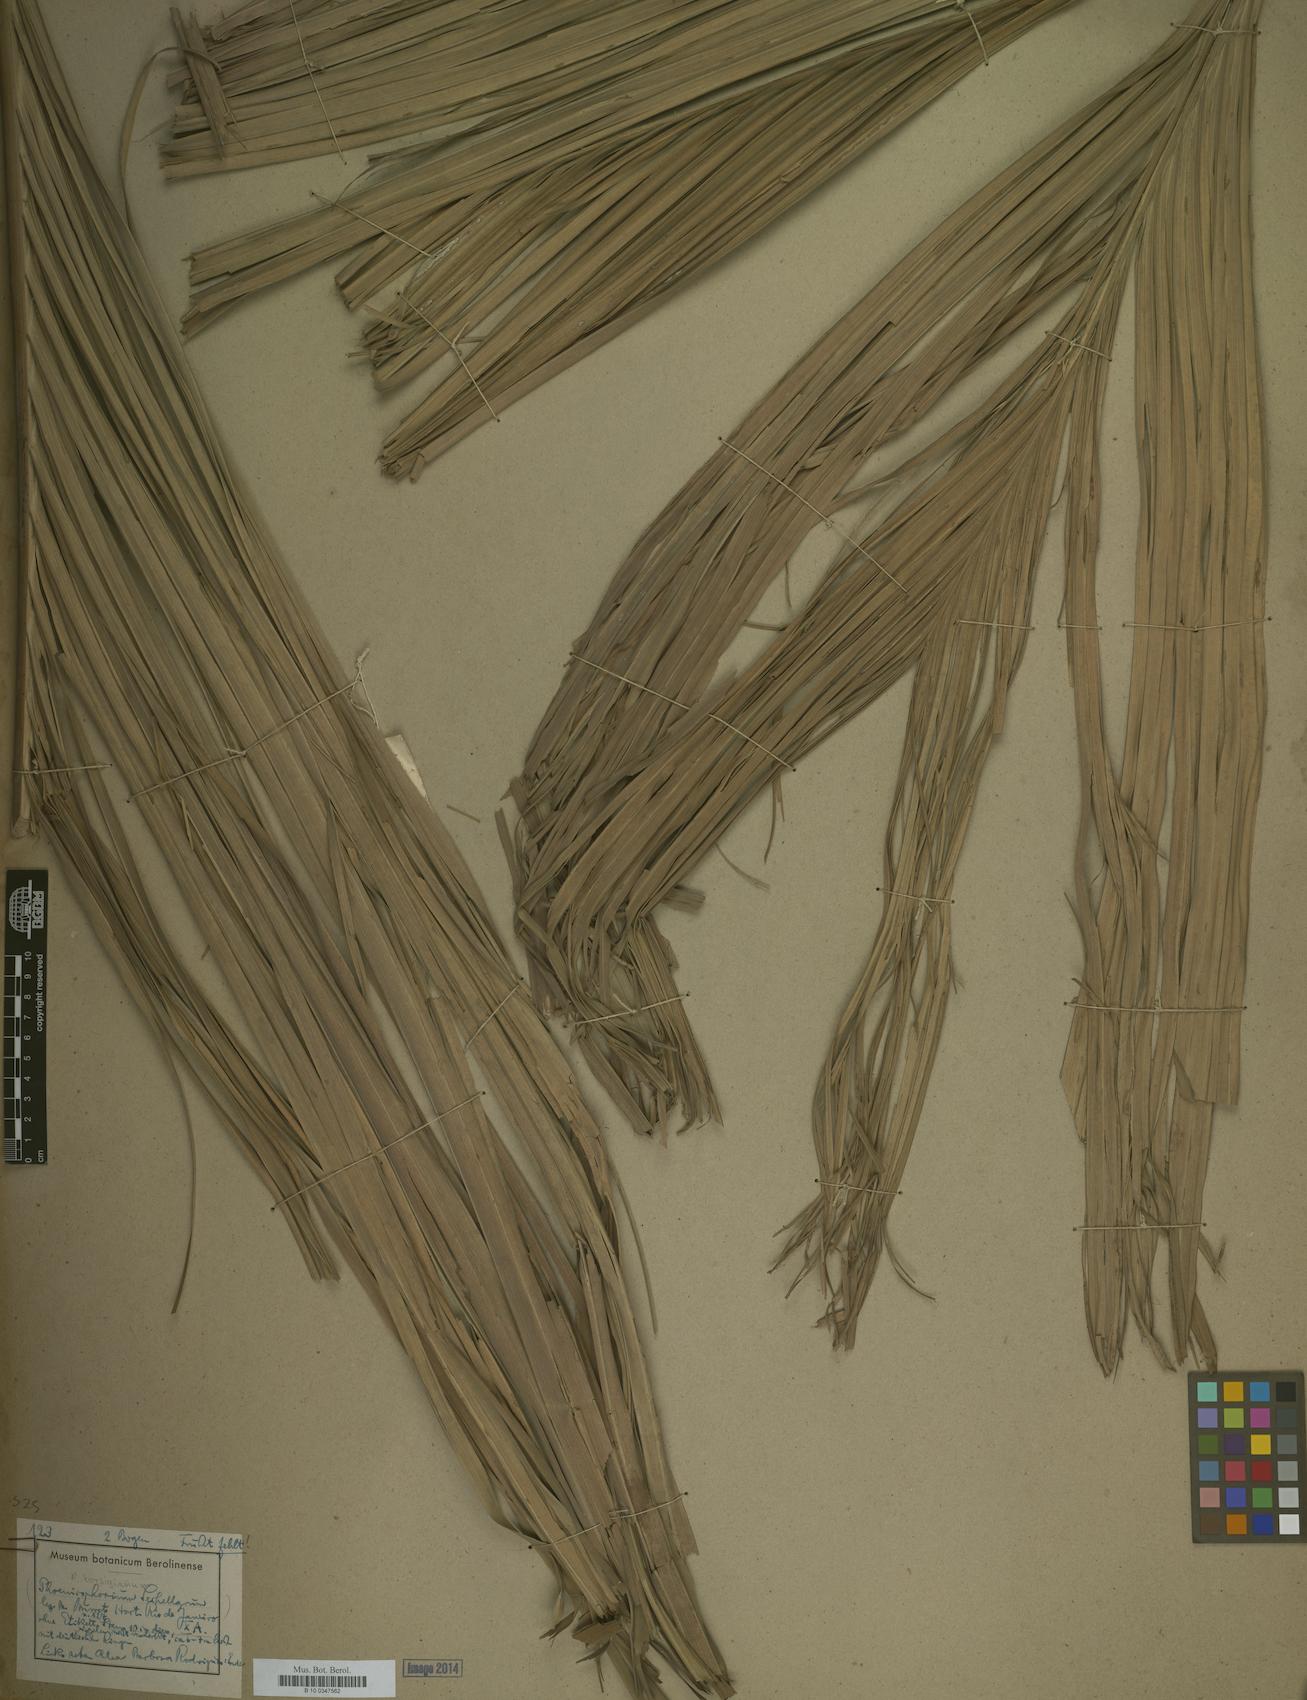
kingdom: Plantae
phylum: Tracheophyta
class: Liliopsida
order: Arecales
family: Arecaceae
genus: Phoenicophorium
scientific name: Phoenicophorium
